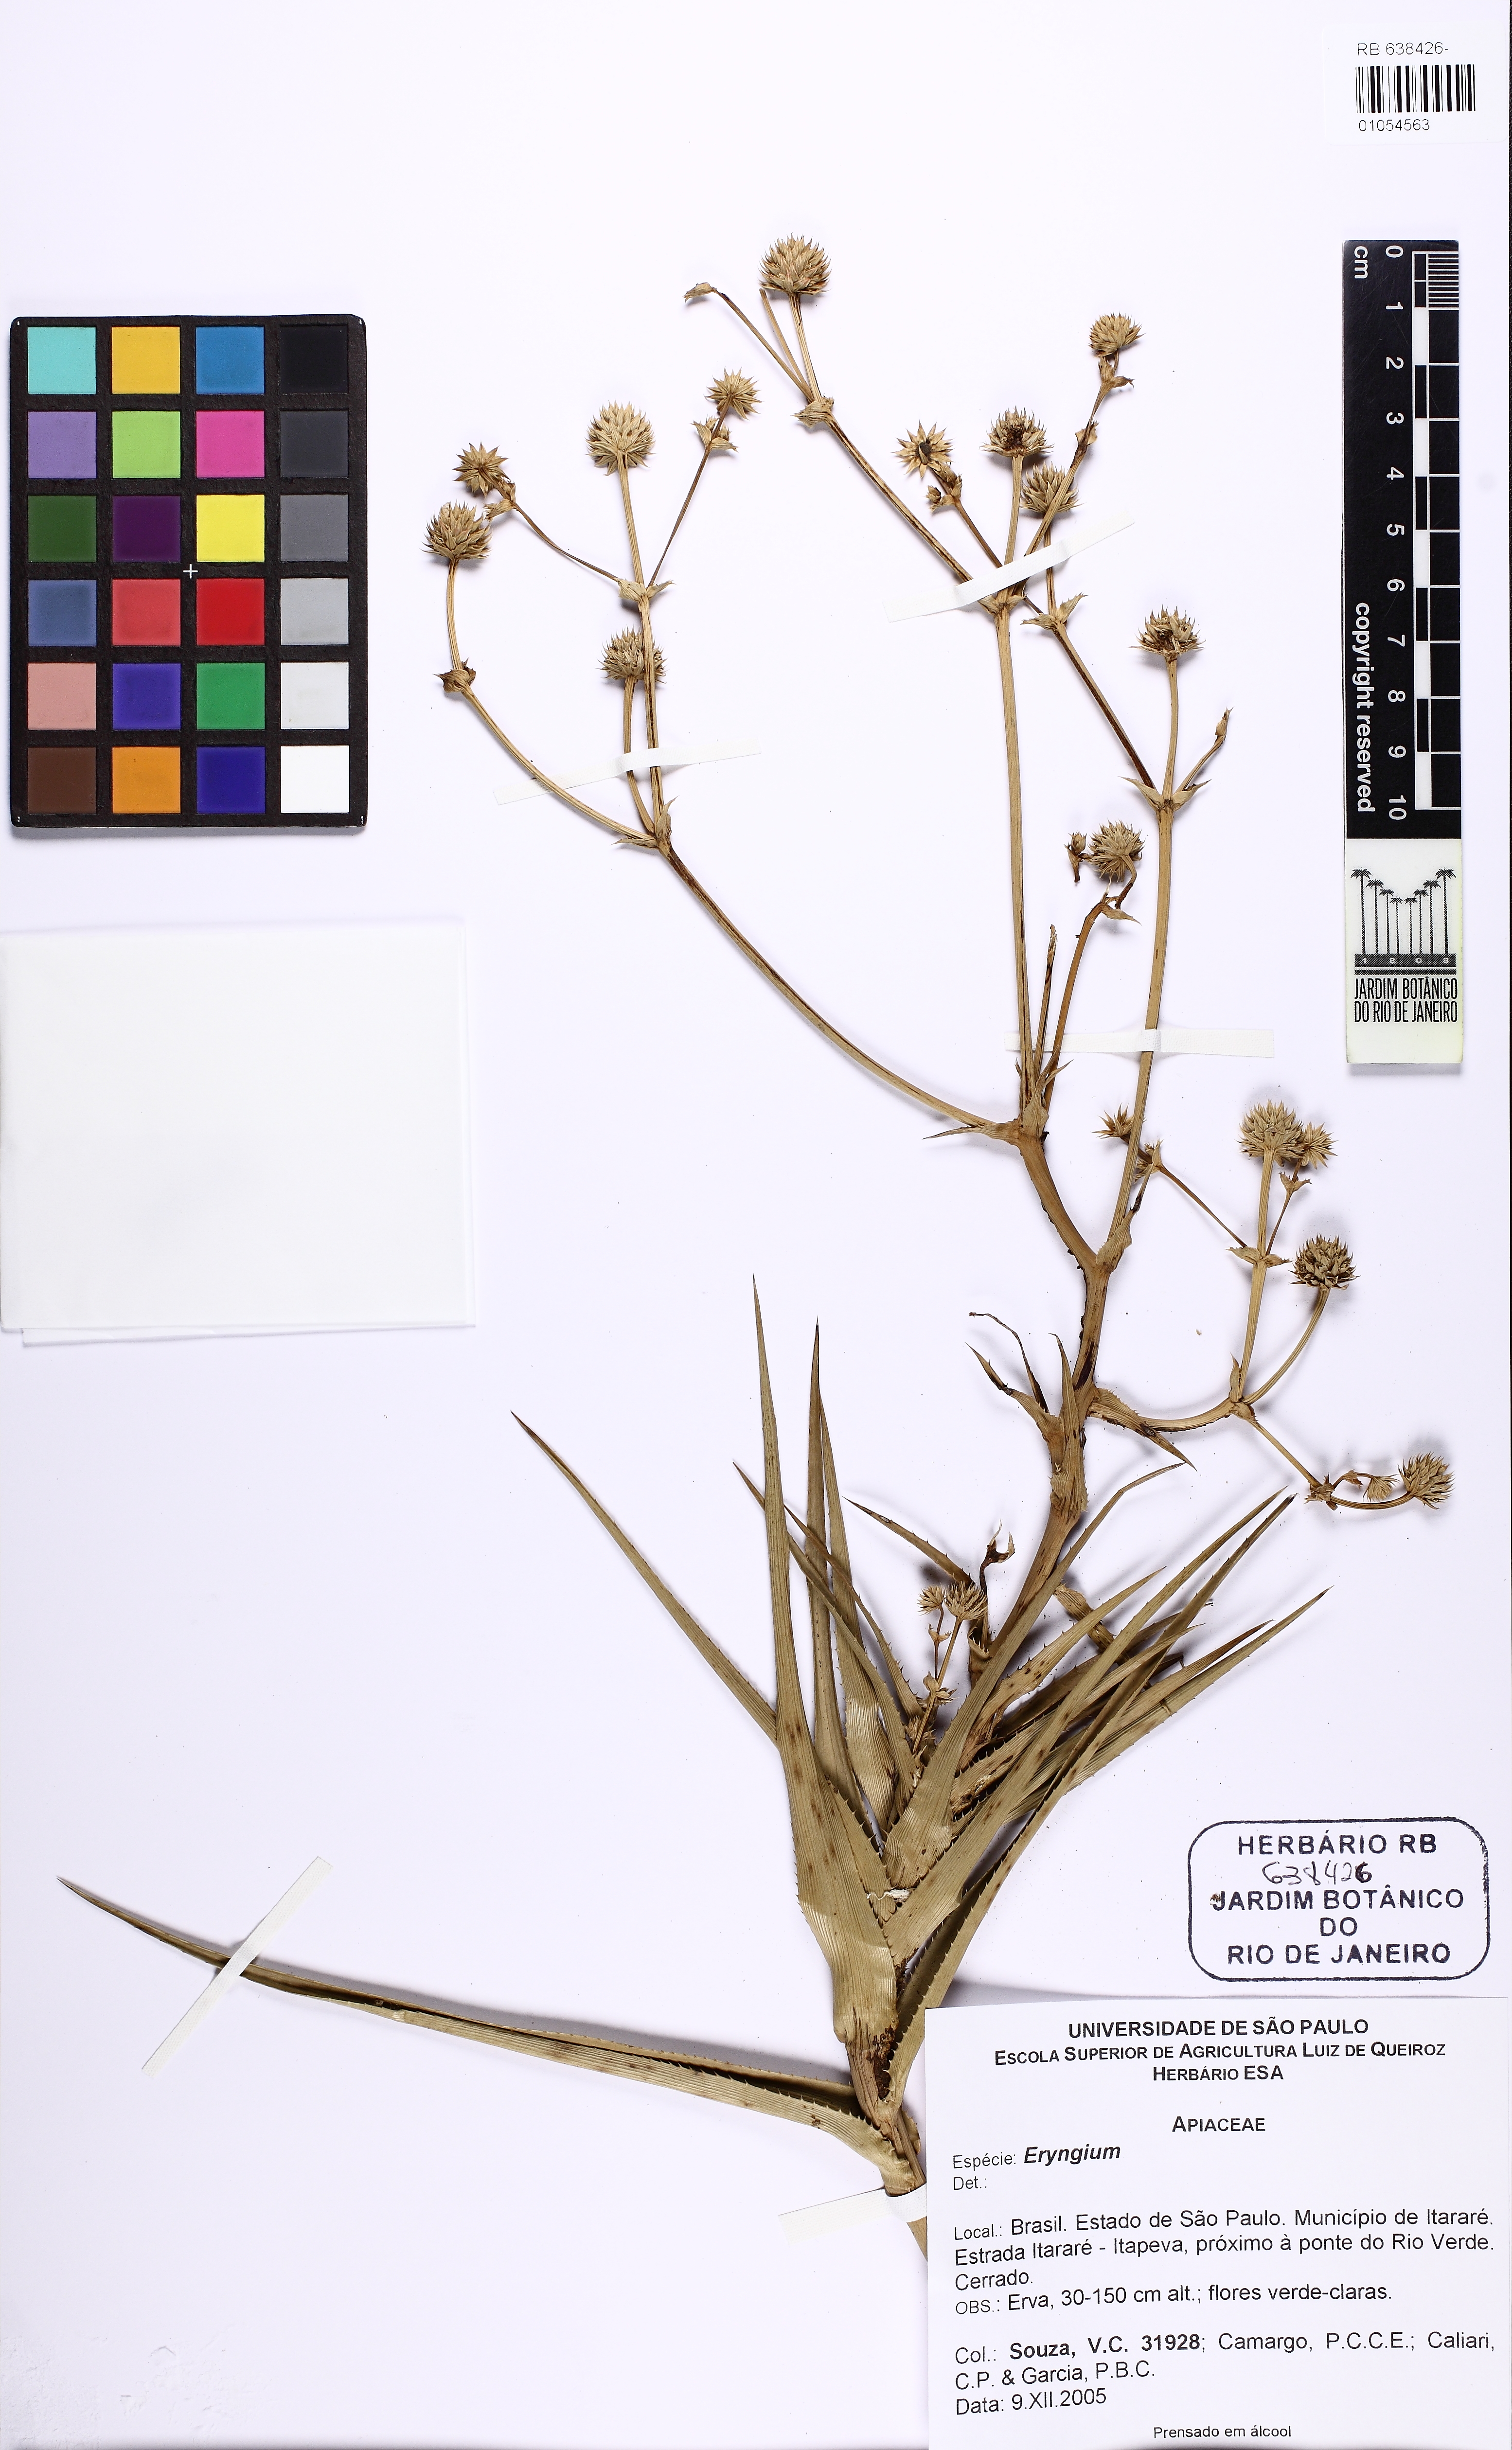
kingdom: Plantae
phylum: Tracheophyta
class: Magnoliopsida
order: Apiales
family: Apiaceae
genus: Eryngium
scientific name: Eryngium megapotamicum
